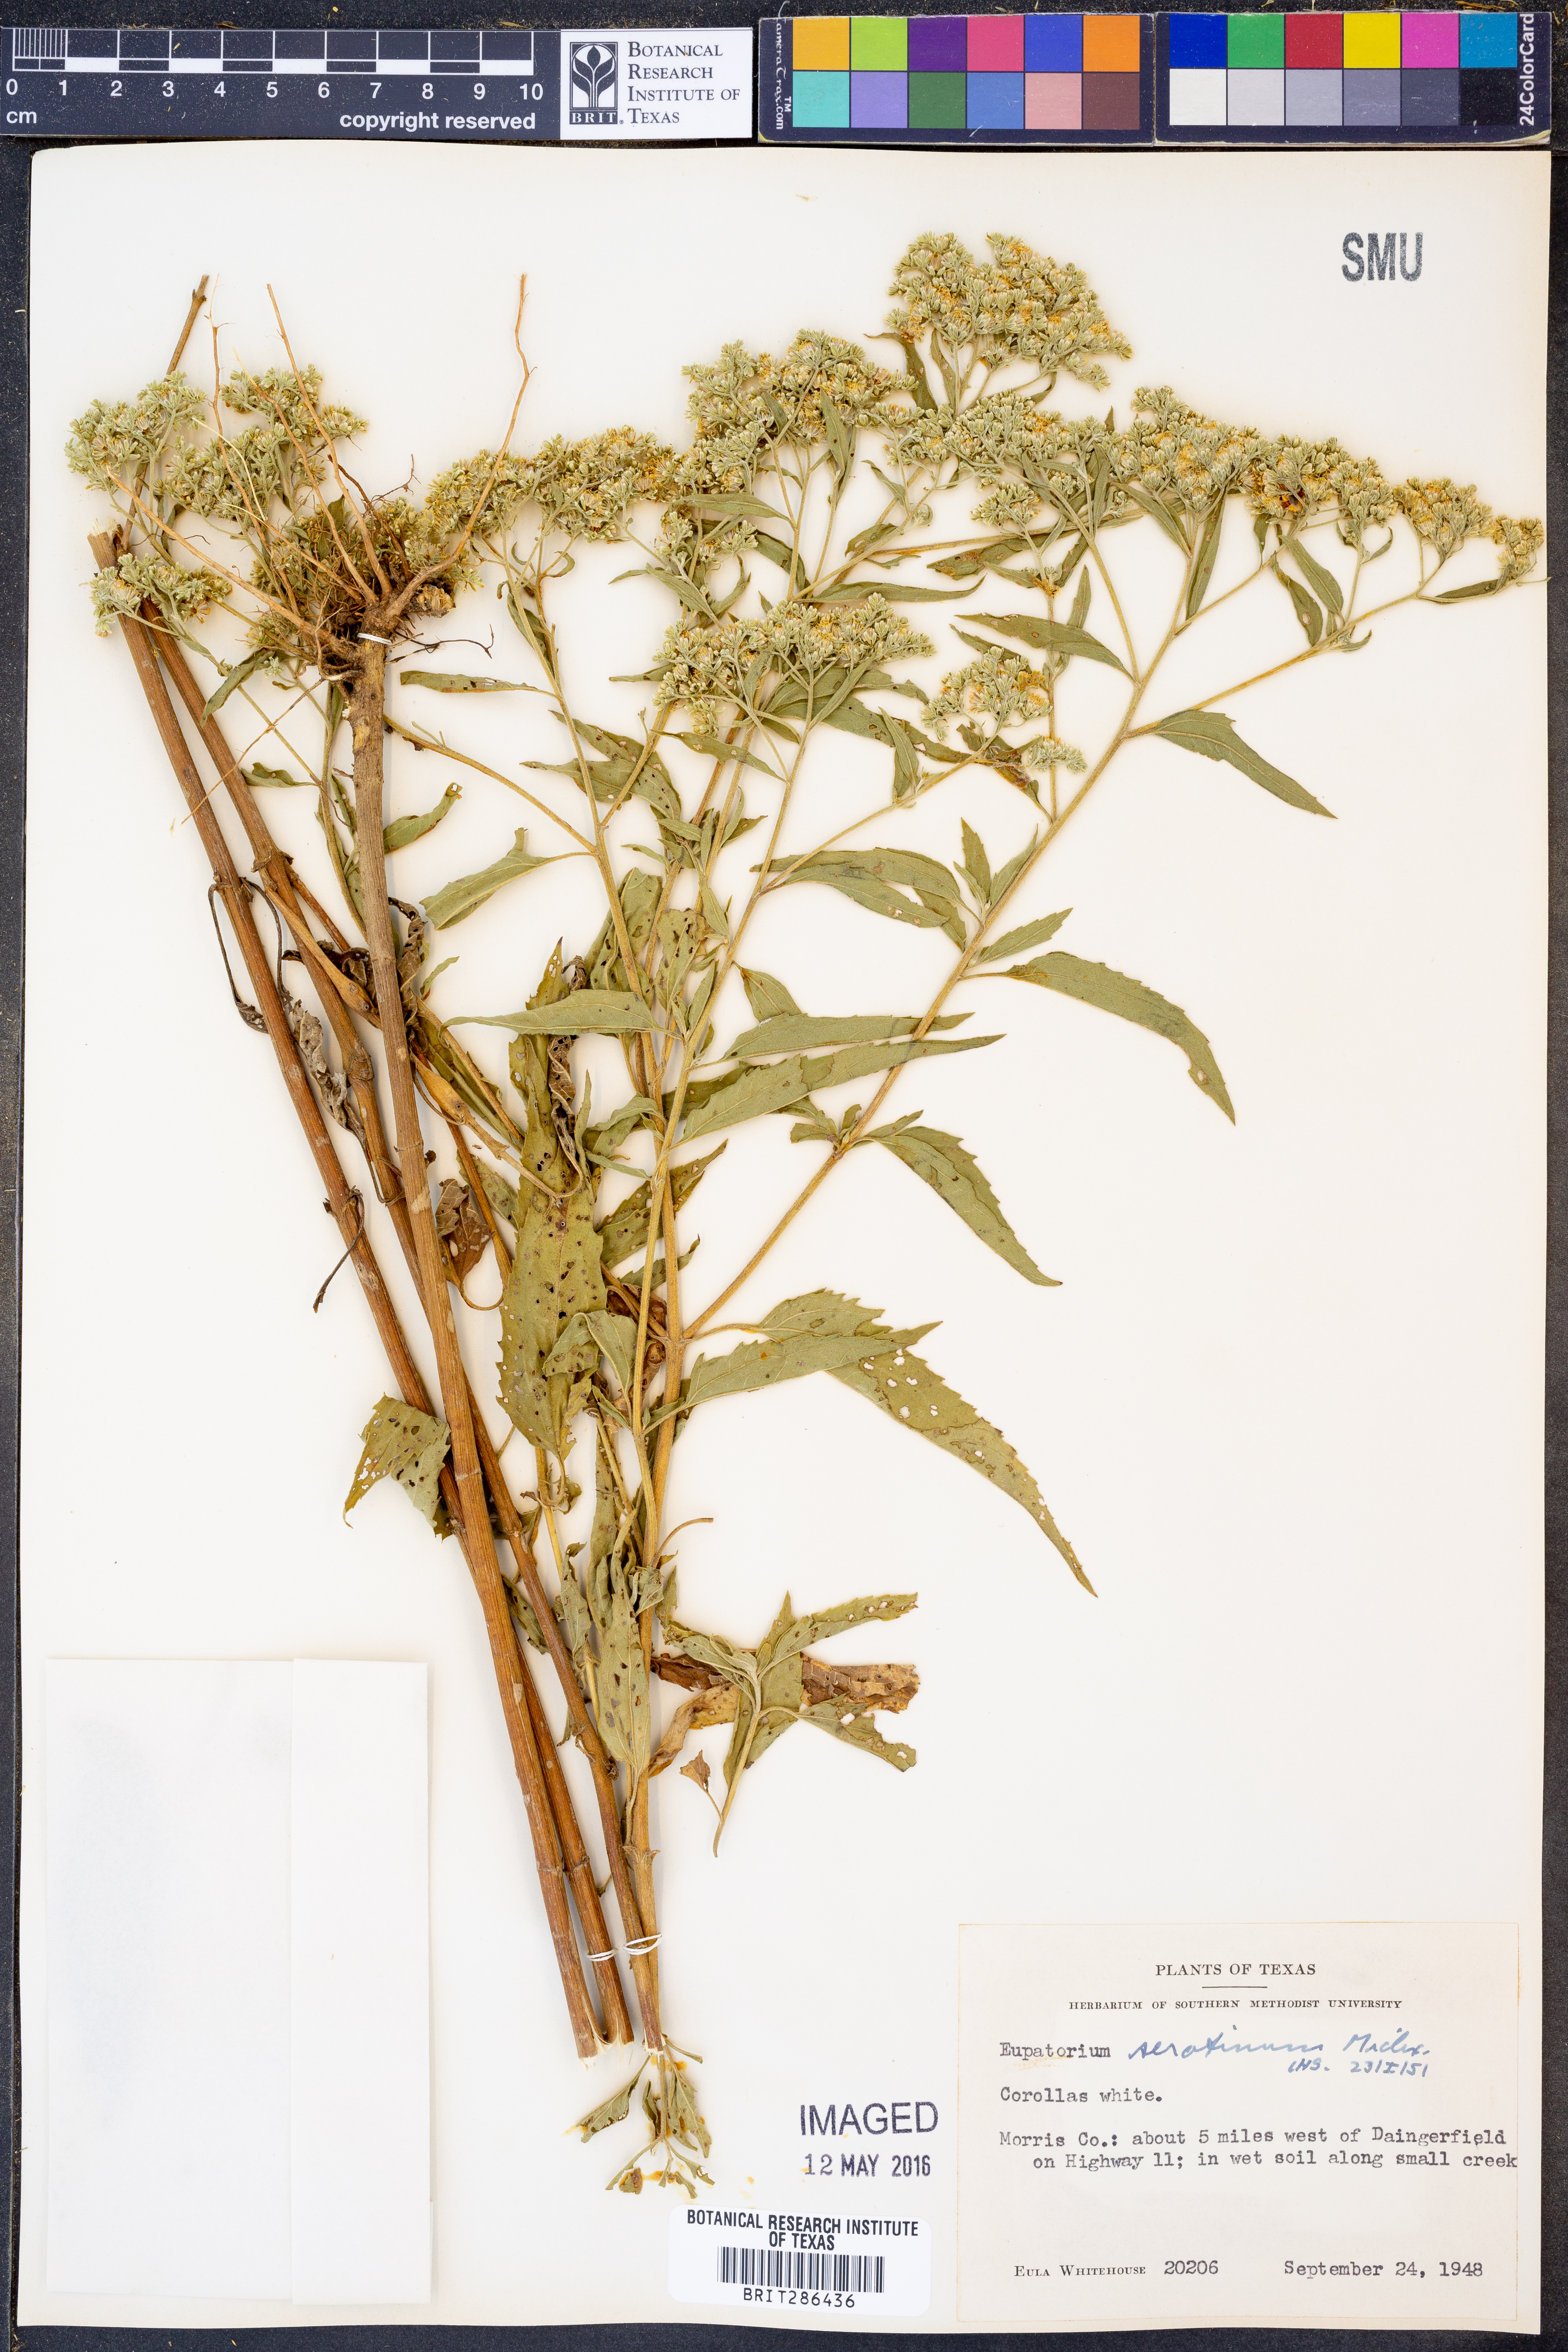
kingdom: Plantae
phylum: Tracheophyta
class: Magnoliopsida
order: Asterales
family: Asteraceae
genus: Eupatorium
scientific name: Eupatorium serotinum
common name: Late boneset
